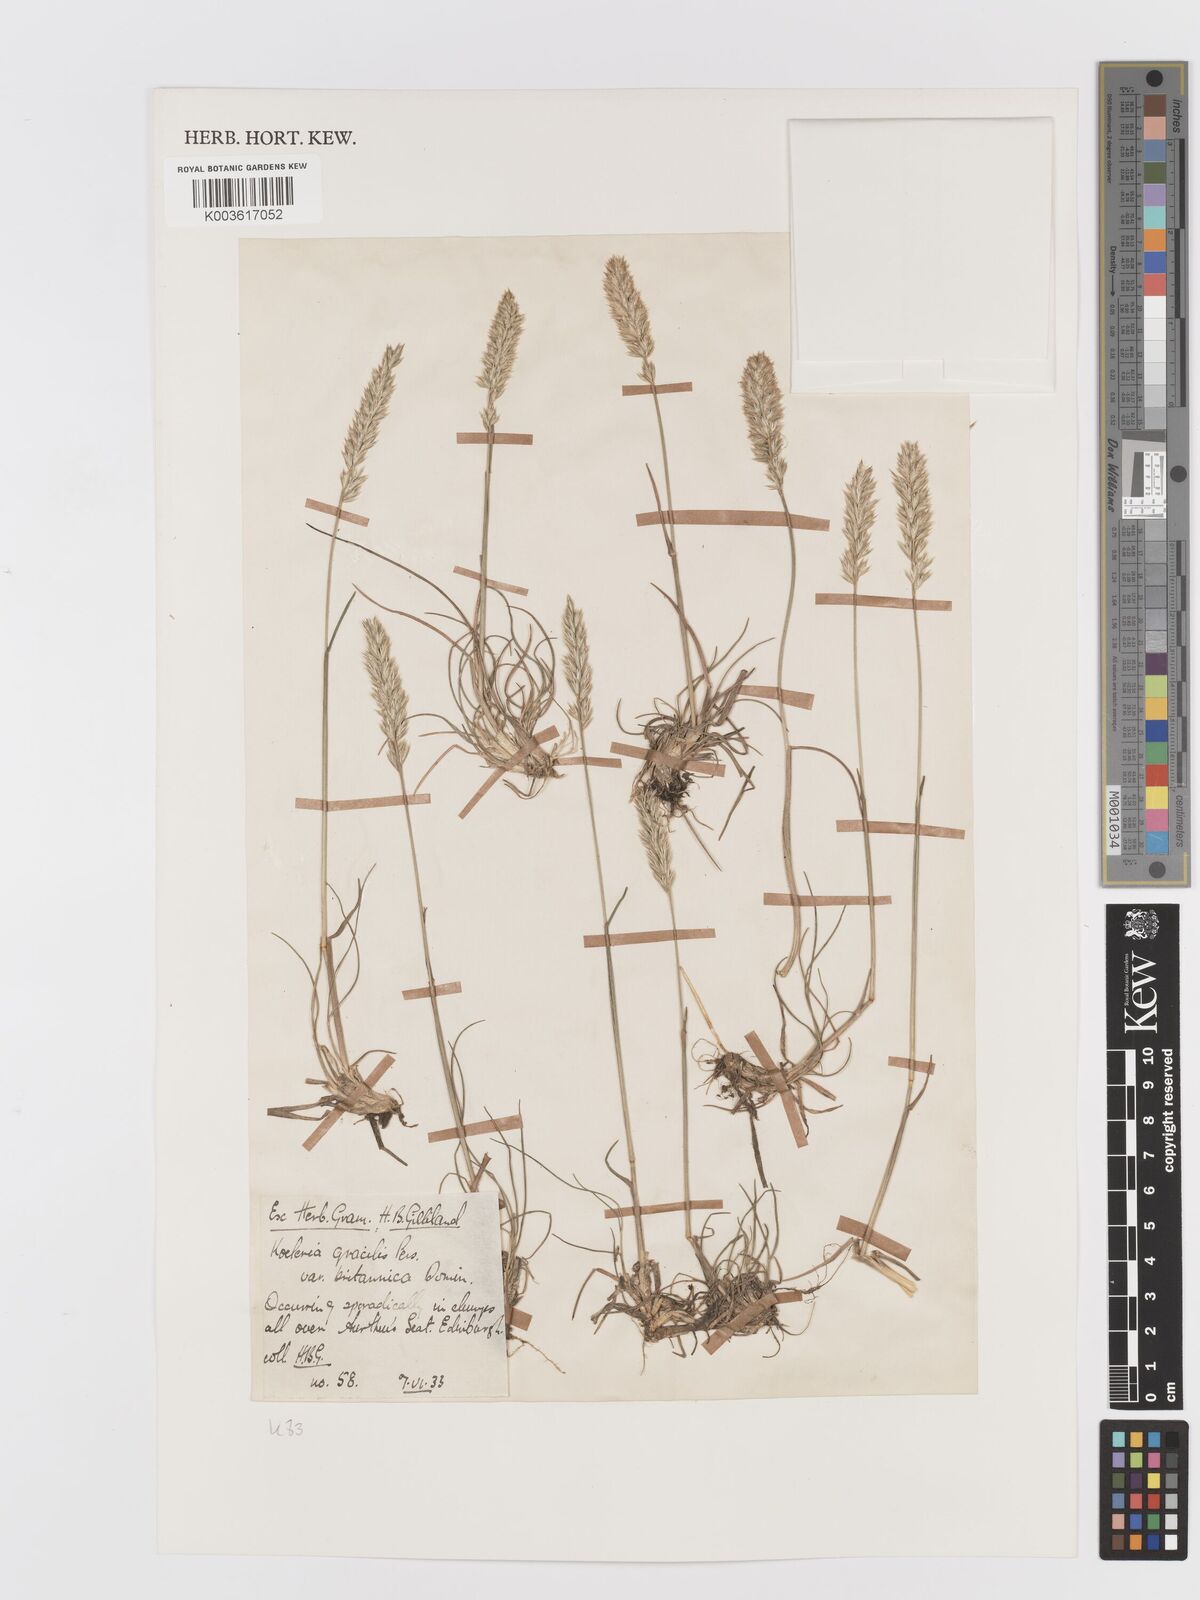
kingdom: Plantae
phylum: Tracheophyta
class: Liliopsida
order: Poales
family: Poaceae
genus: Koeleria
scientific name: Koeleria macrantha
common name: Crested hair-grass
